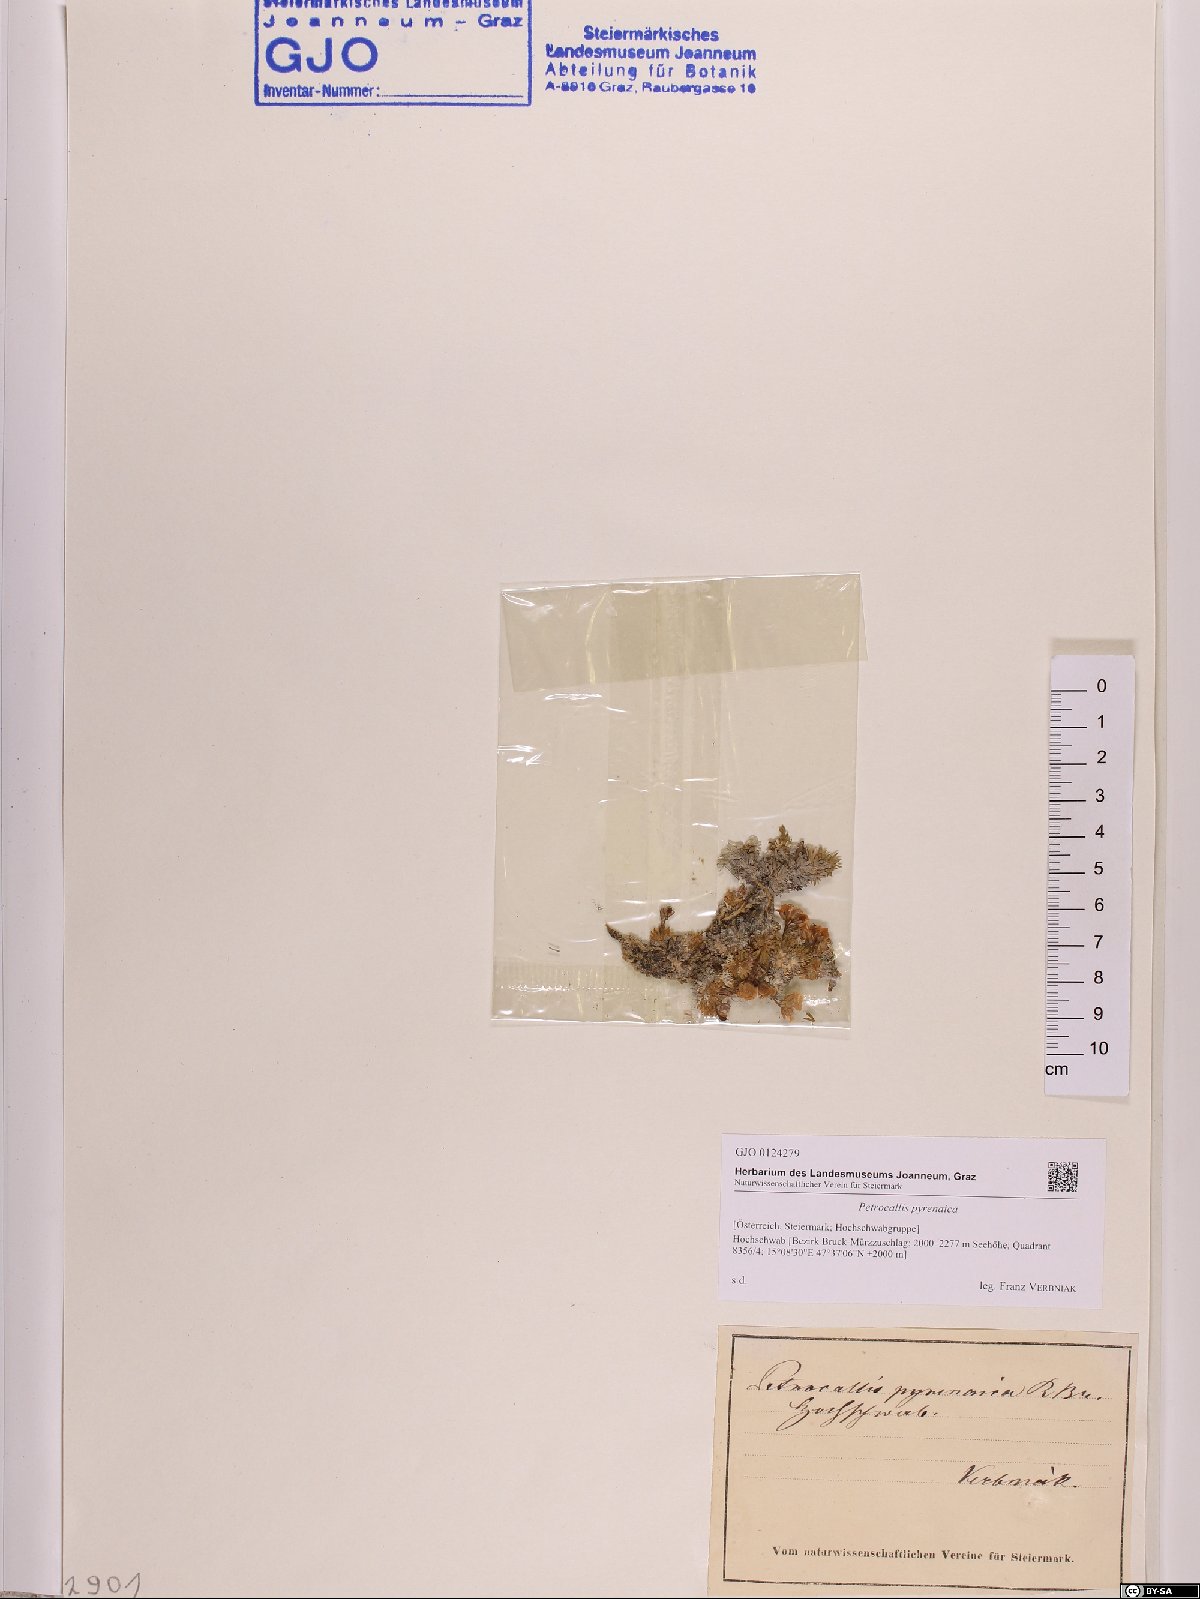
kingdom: Plantae
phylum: Tracheophyta
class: Magnoliopsida
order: Brassicales
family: Brassicaceae
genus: Petrocallis
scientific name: Petrocallis pyrenaica
